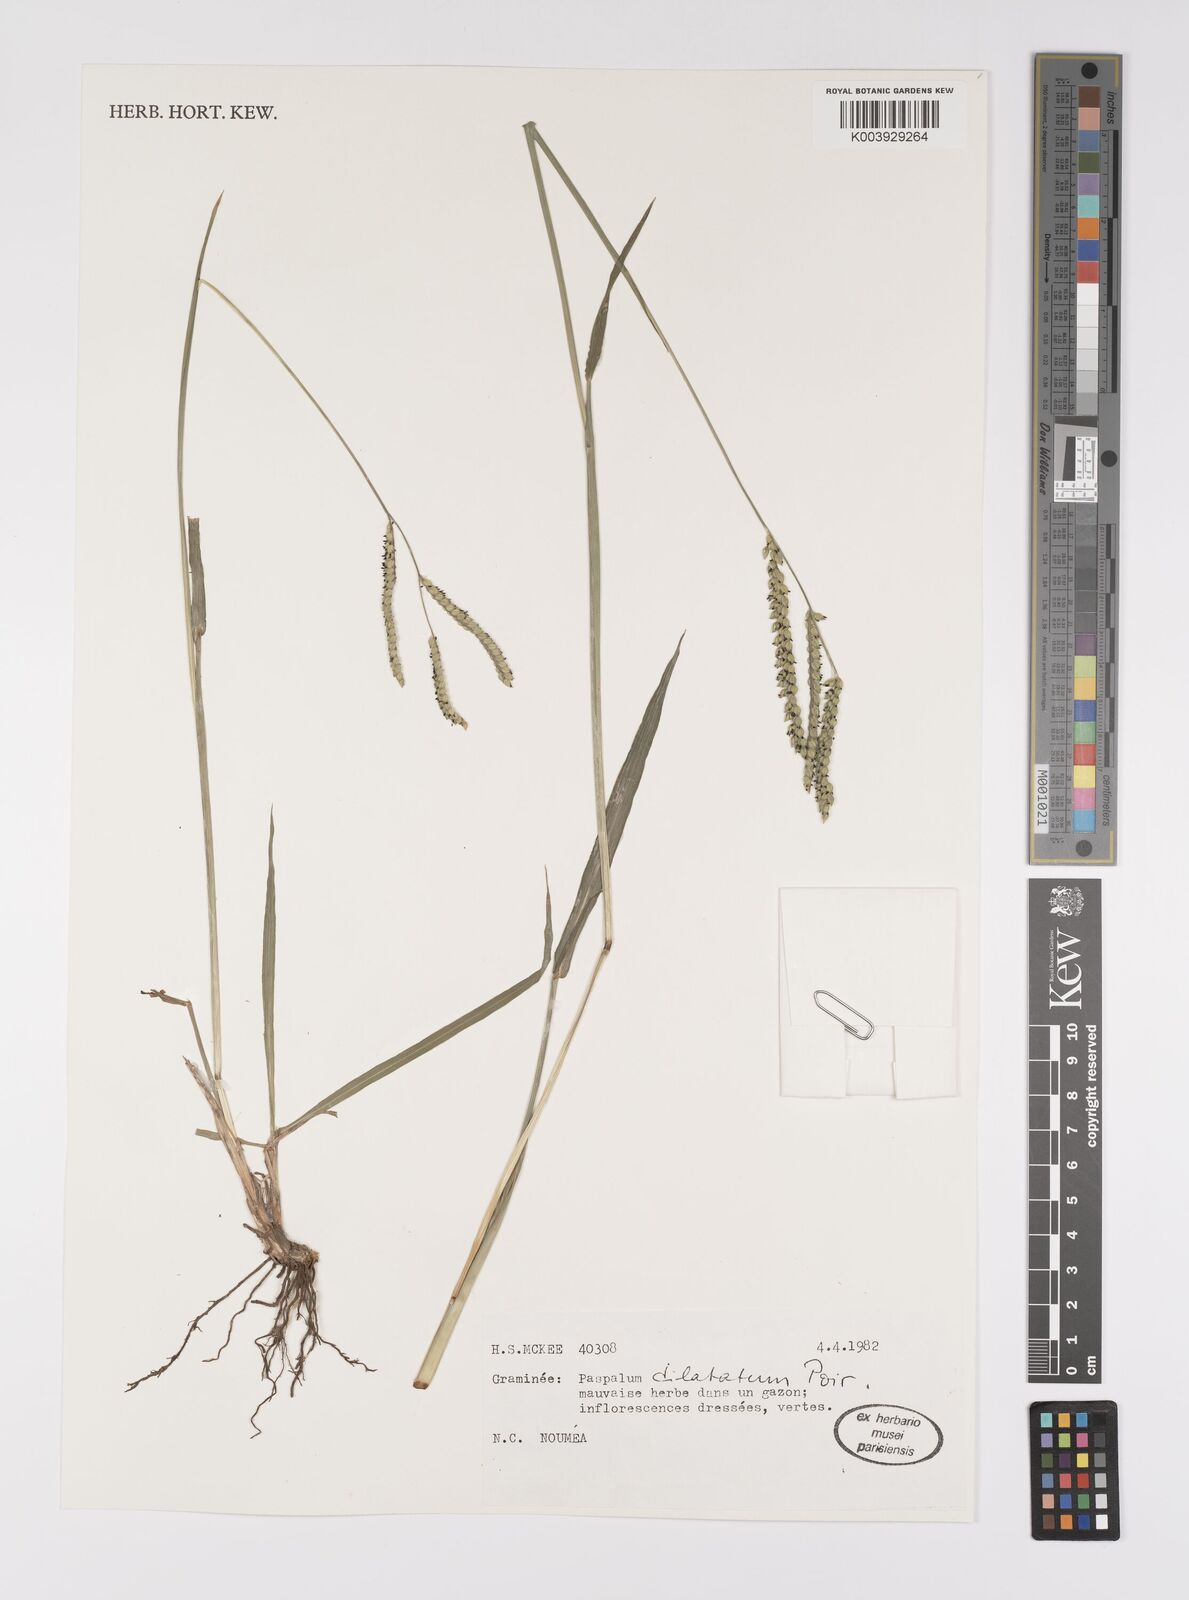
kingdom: Plantae
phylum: Tracheophyta
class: Liliopsida
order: Poales
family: Poaceae
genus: Paspalum
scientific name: Paspalum dilatatum
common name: Dallisgrass
